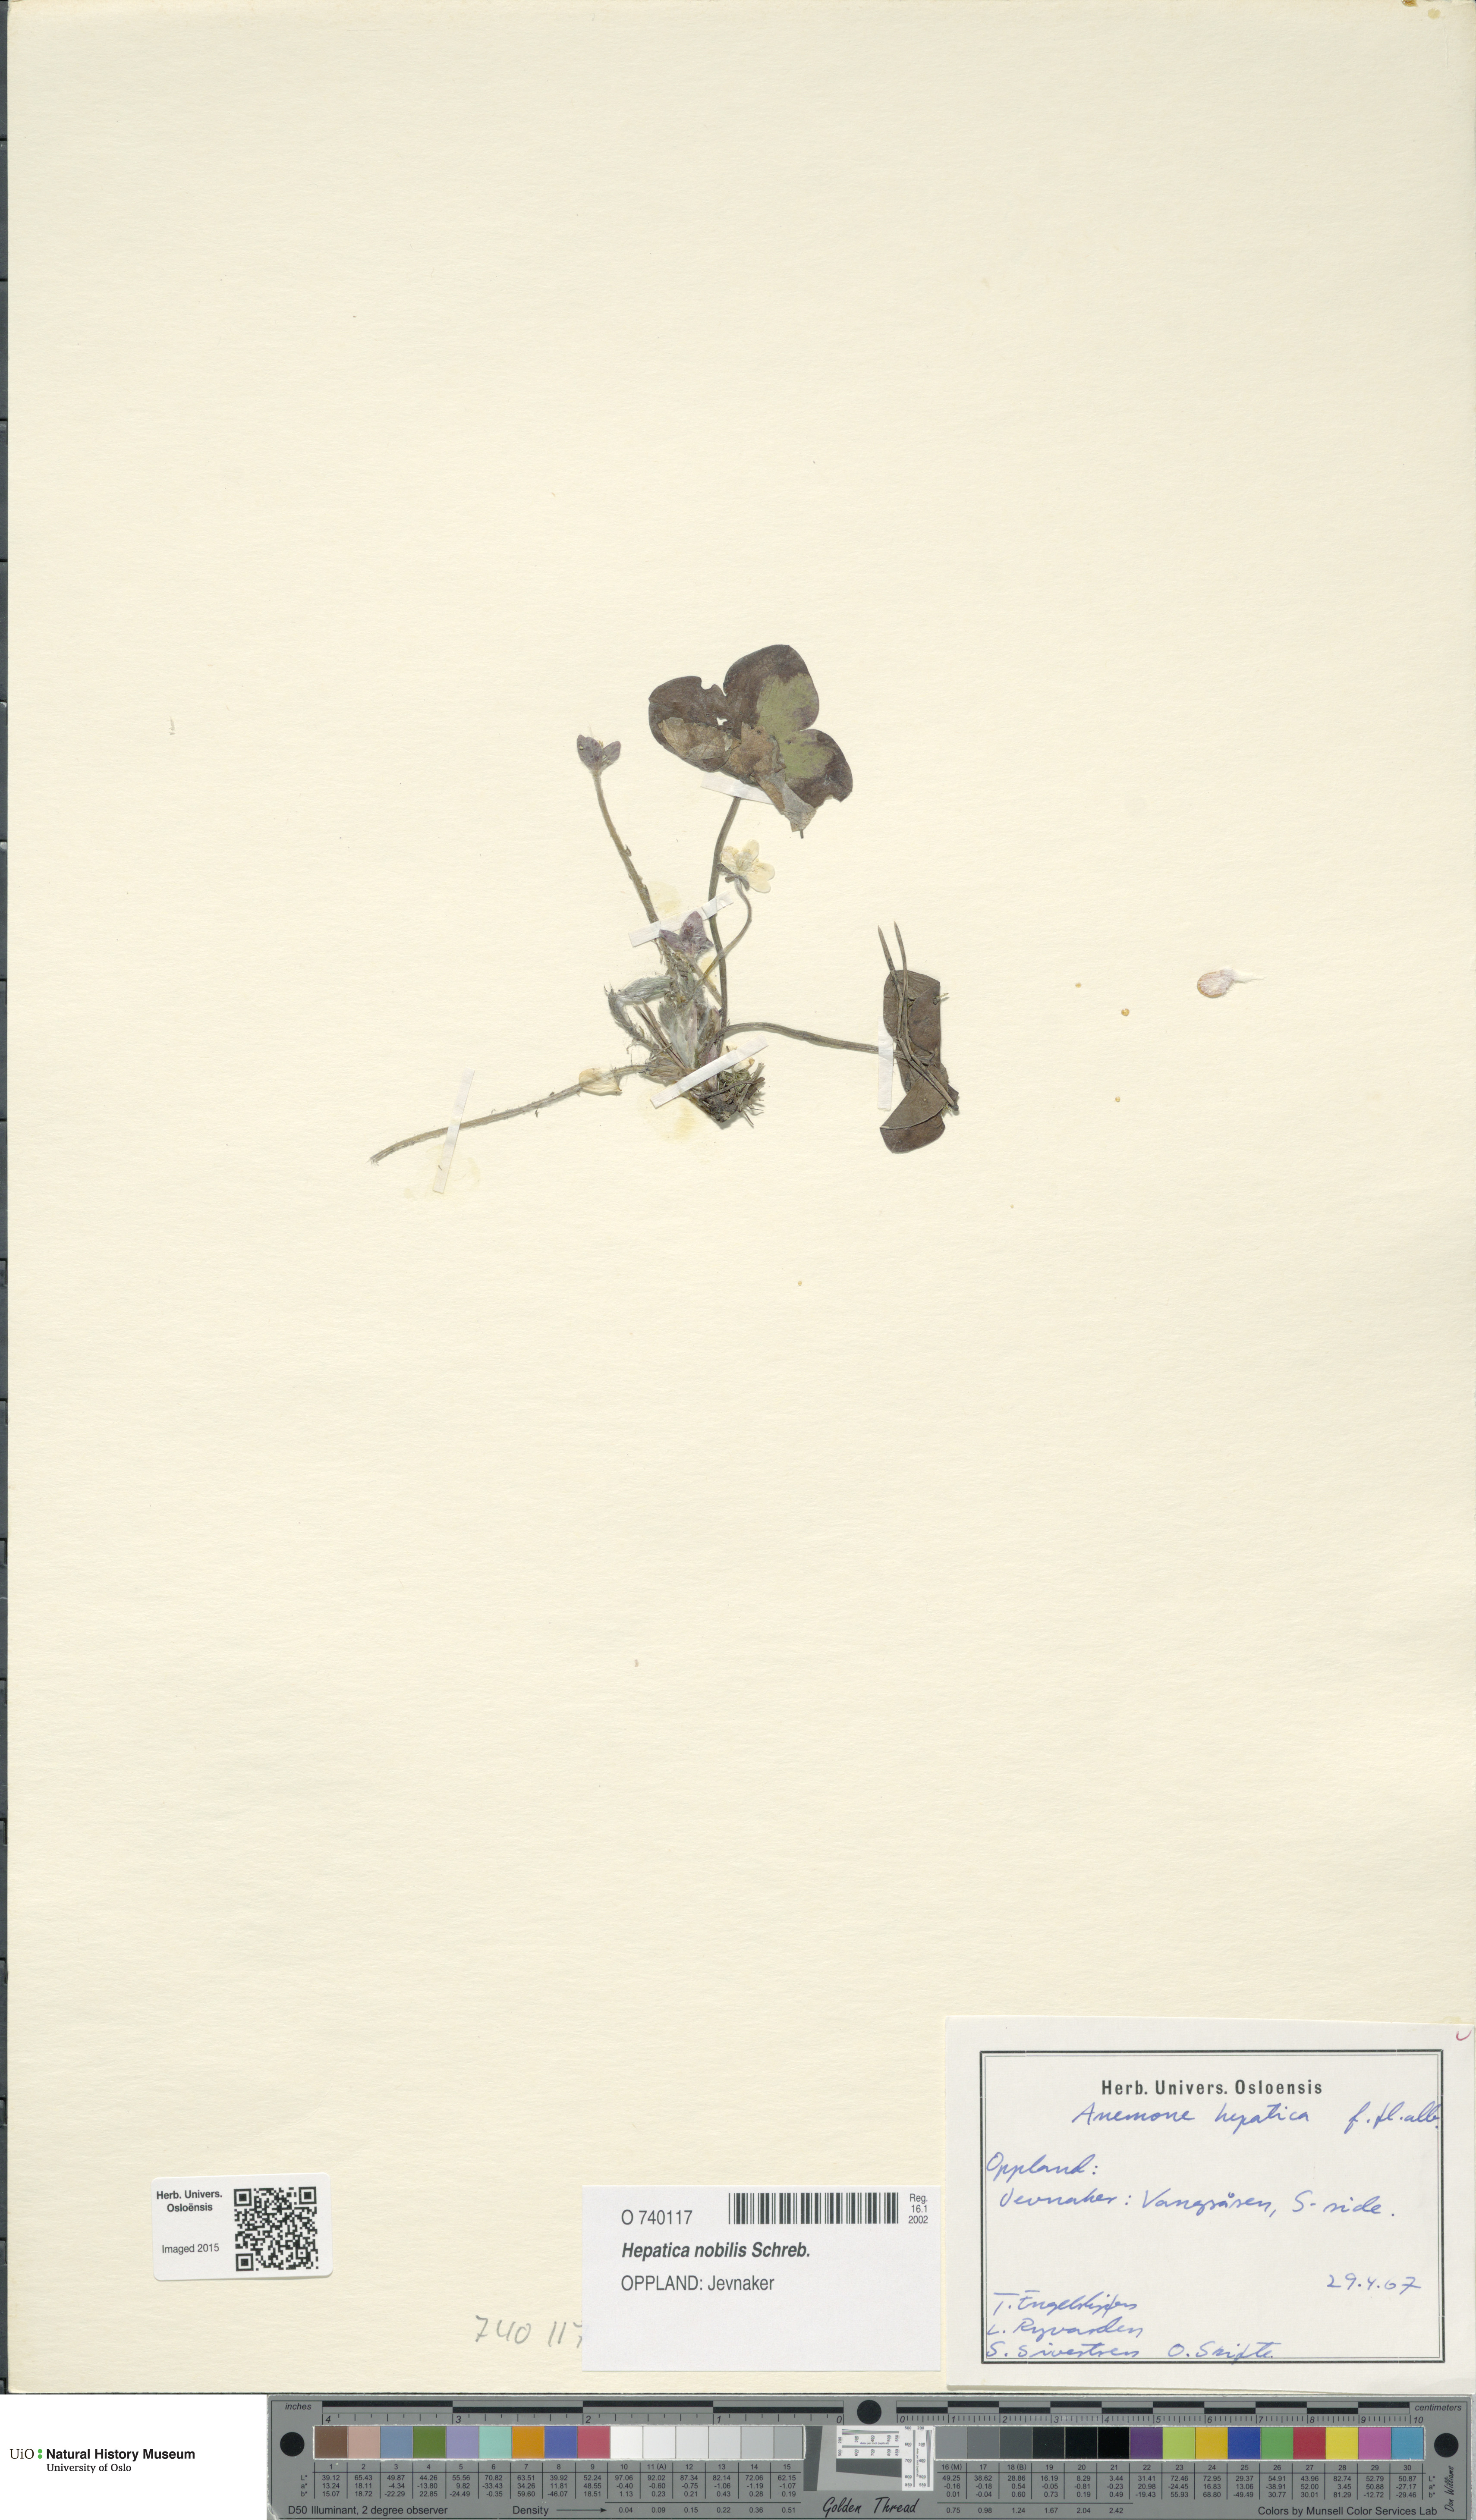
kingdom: Plantae
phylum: Tracheophyta
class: Magnoliopsida
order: Ranunculales
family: Ranunculaceae
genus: Hepatica
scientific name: Hepatica nobilis
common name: Liverleaf
